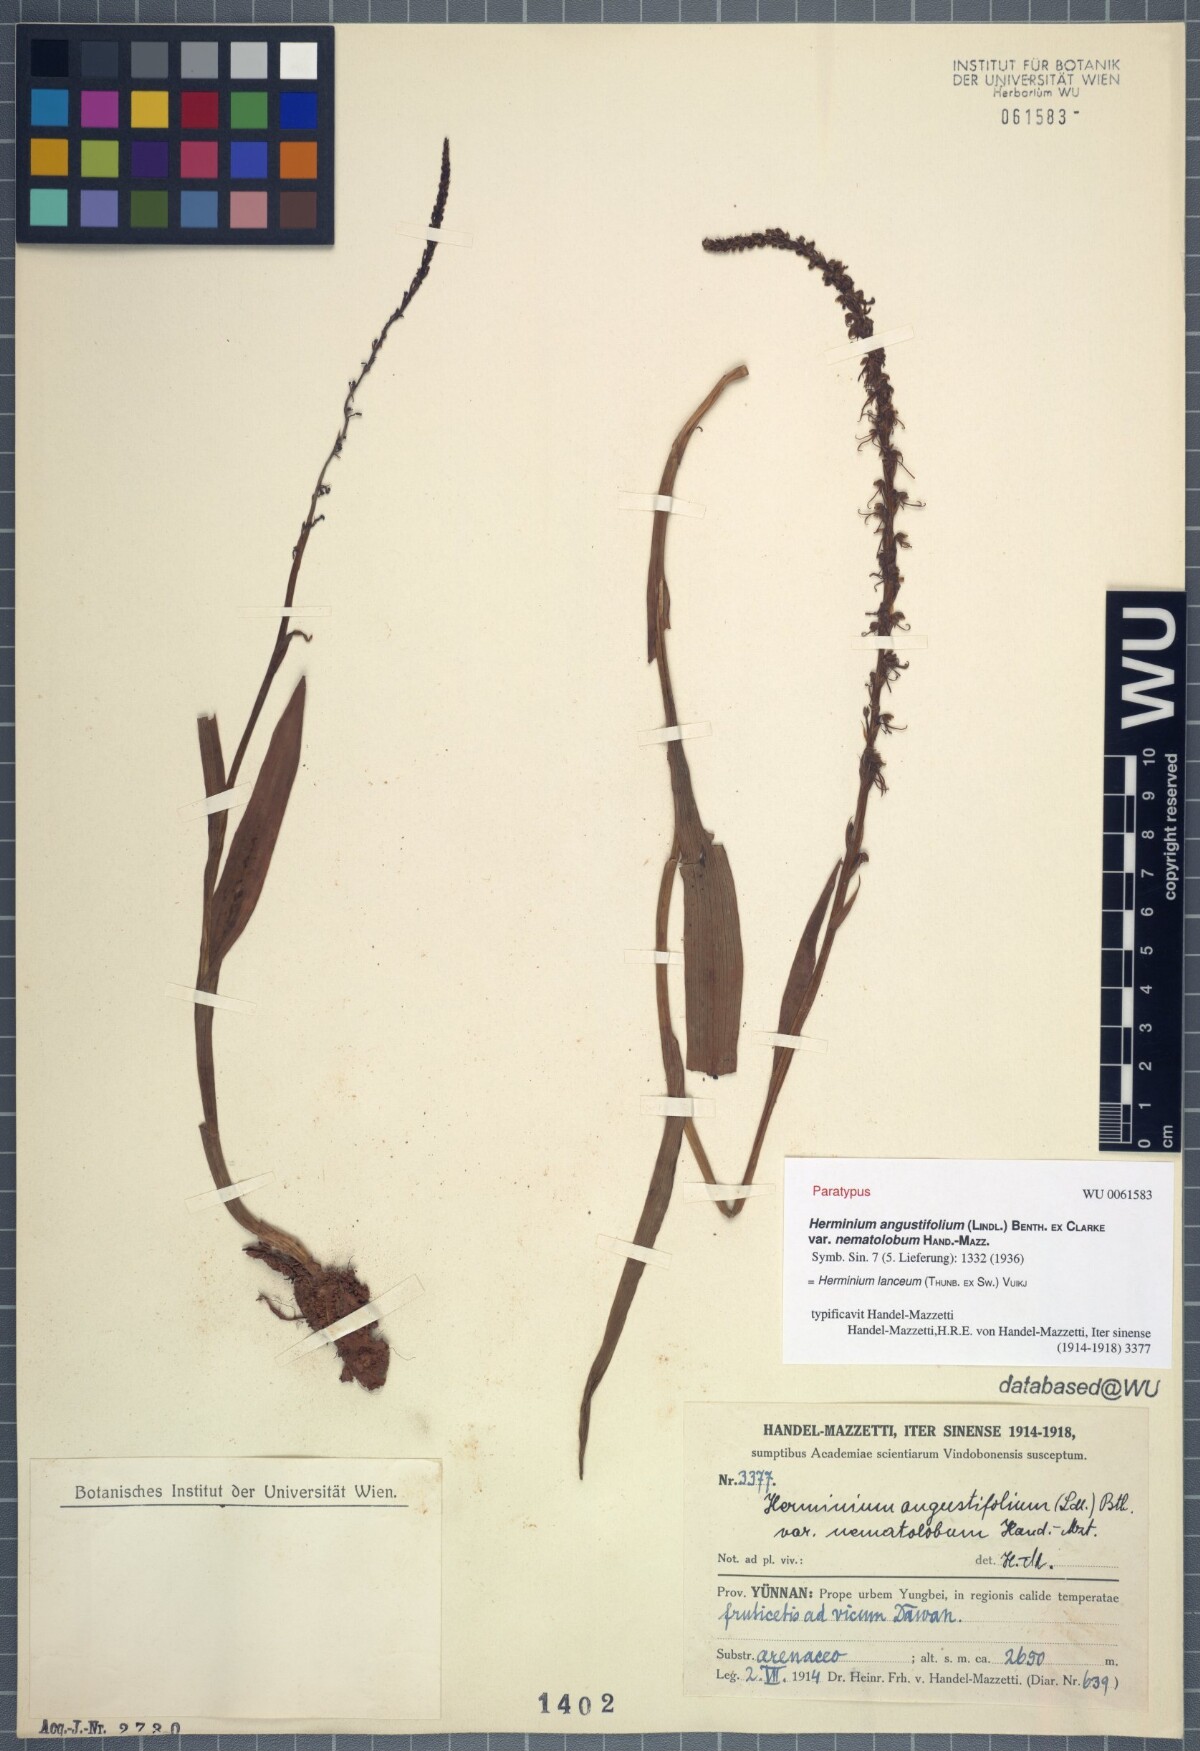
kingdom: Plantae
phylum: Tracheophyta
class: Liliopsida
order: Asparagales
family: Orchidaceae
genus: Herminium
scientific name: Herminium lanceum
